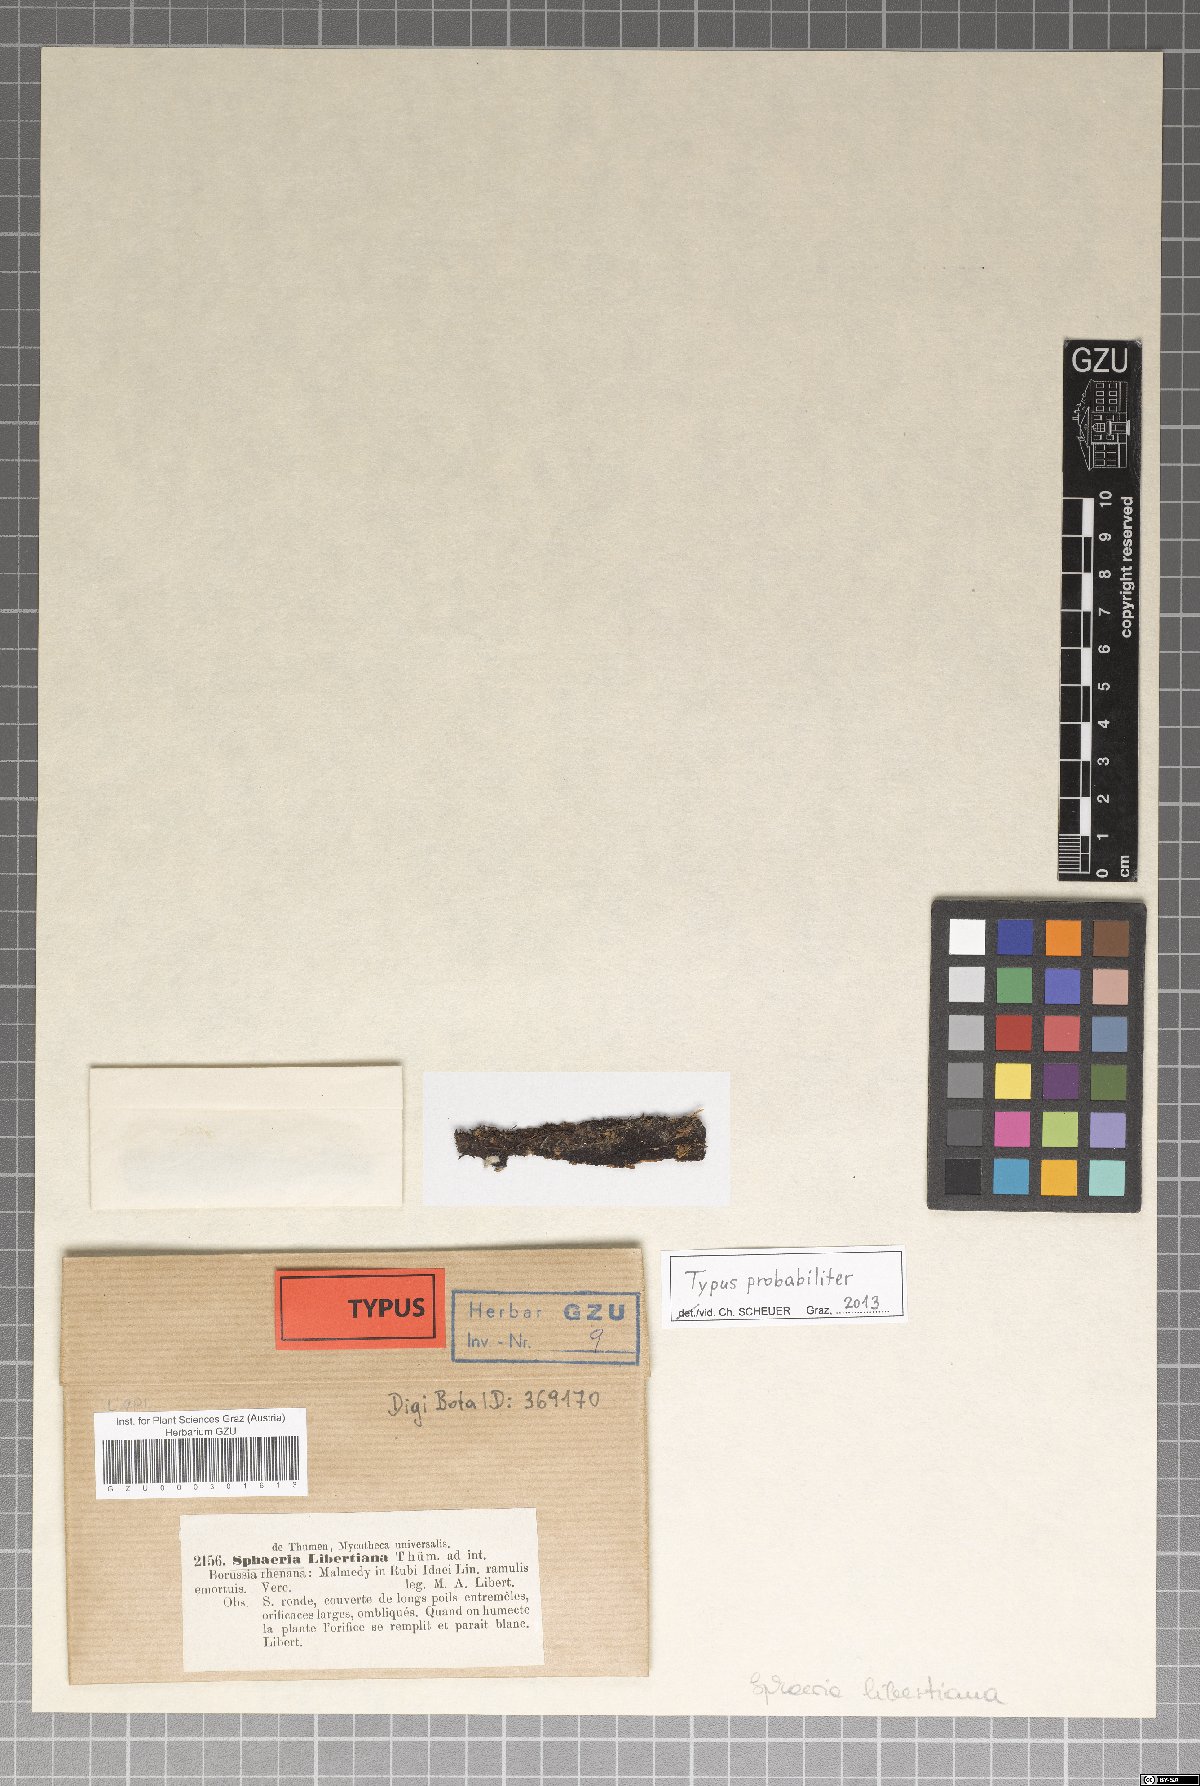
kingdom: Fungi
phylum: Ascomycota
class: Sordariomycetes
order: Xylariales
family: Xylariaceae
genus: Sphaeria
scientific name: Sphaeria
